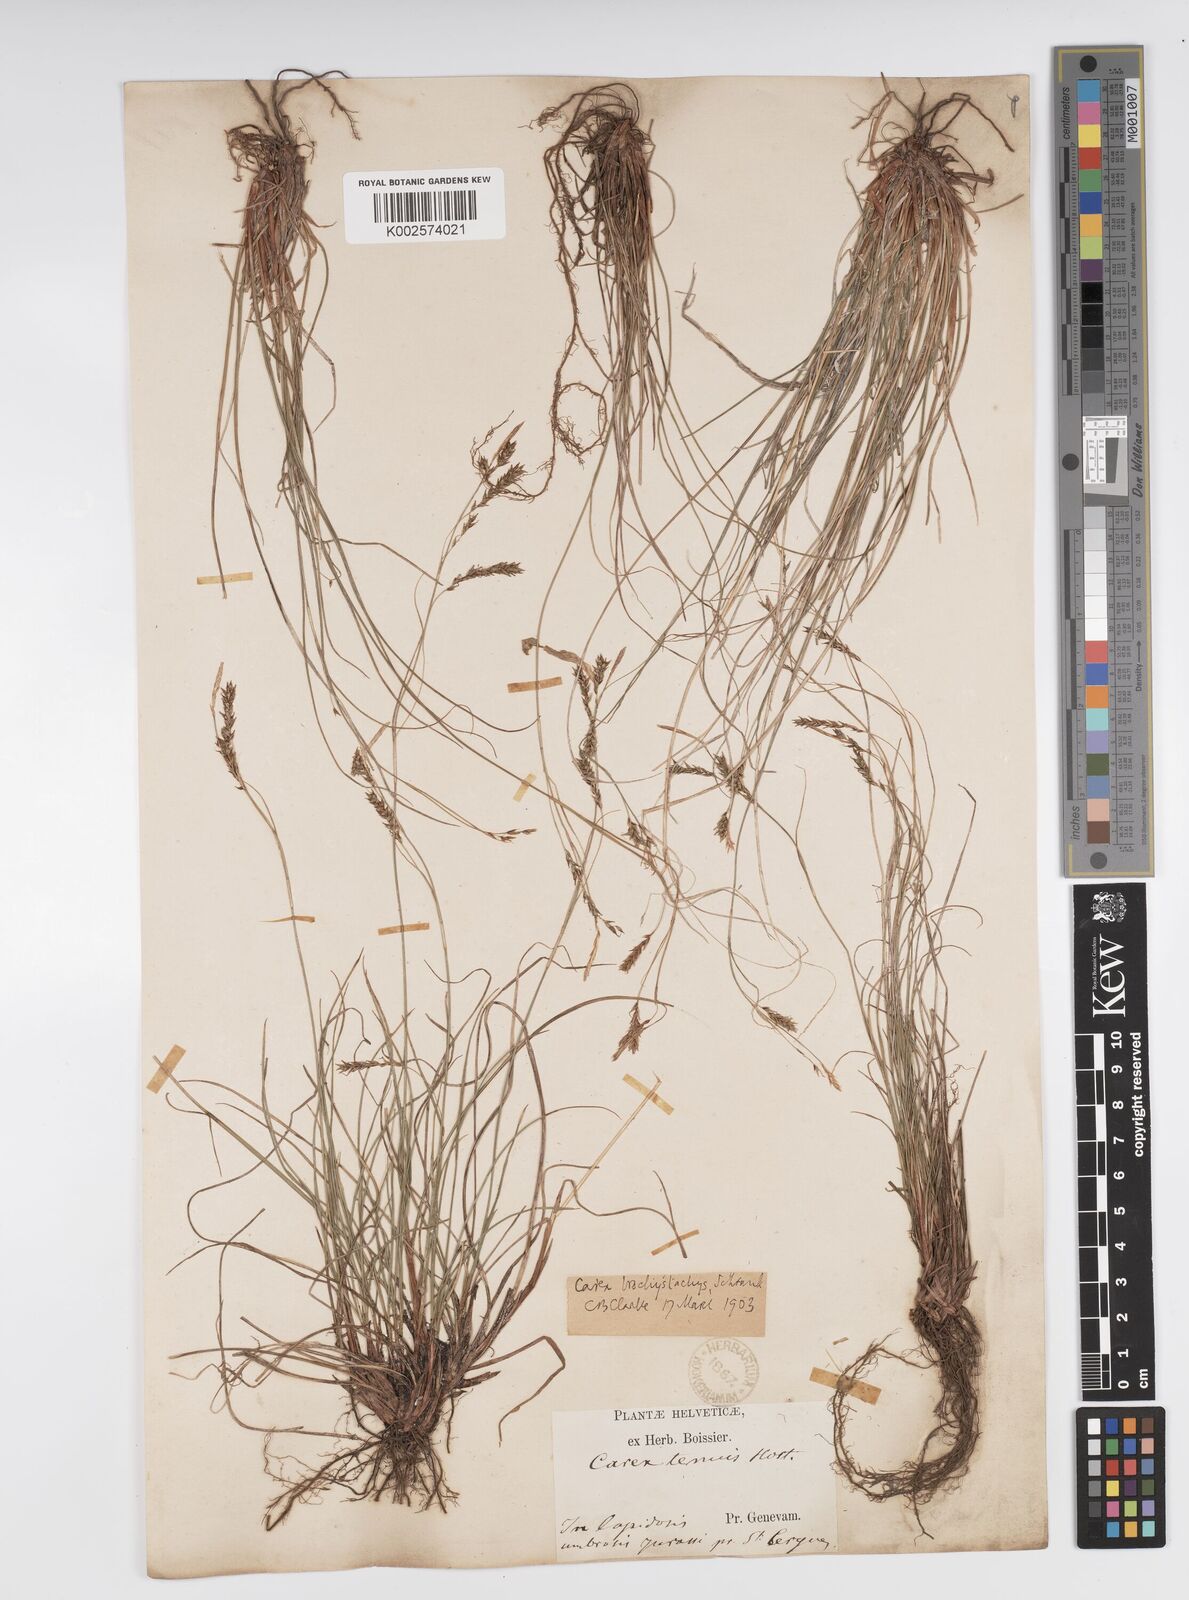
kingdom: Plantae
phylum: Tracheophyta
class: Liliopsida
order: Poales
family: Cyperaceae
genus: Carex
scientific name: Carex brachystachys
